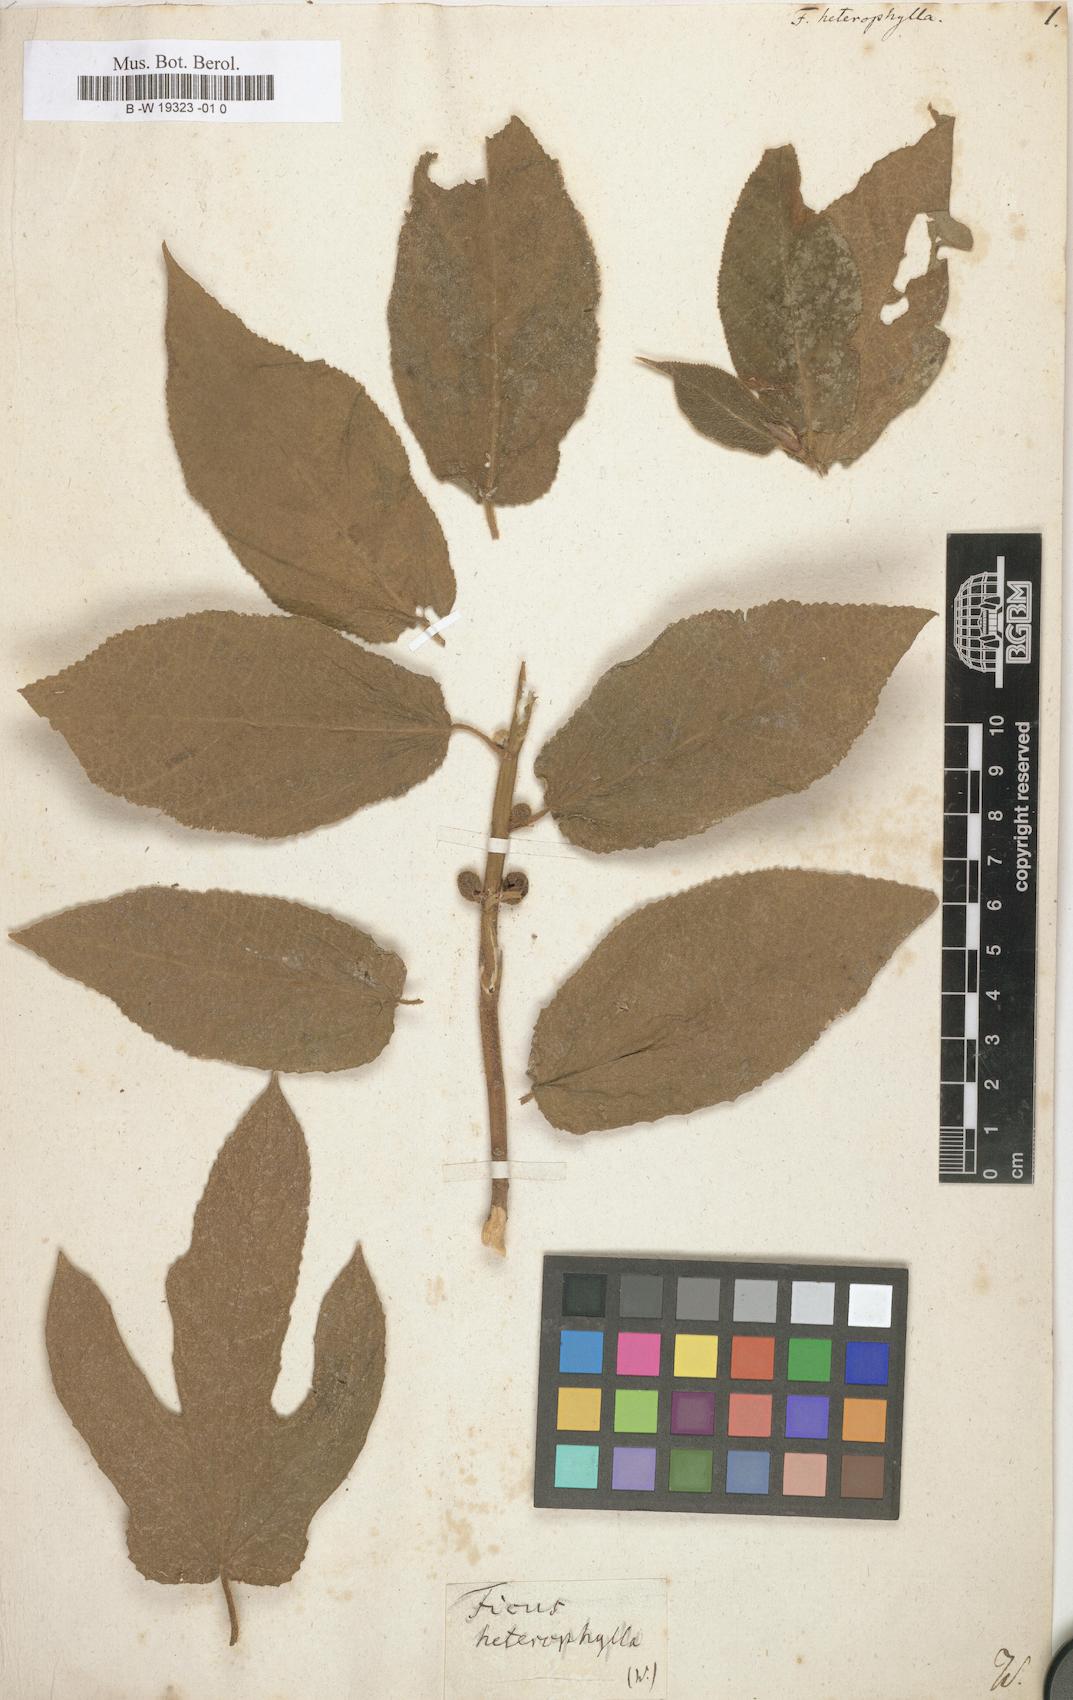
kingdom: Plantae
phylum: Tracheophyta
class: Magnoliopsida
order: Rosales
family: Moraceae
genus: Ficus
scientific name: Ficus heterophylla
